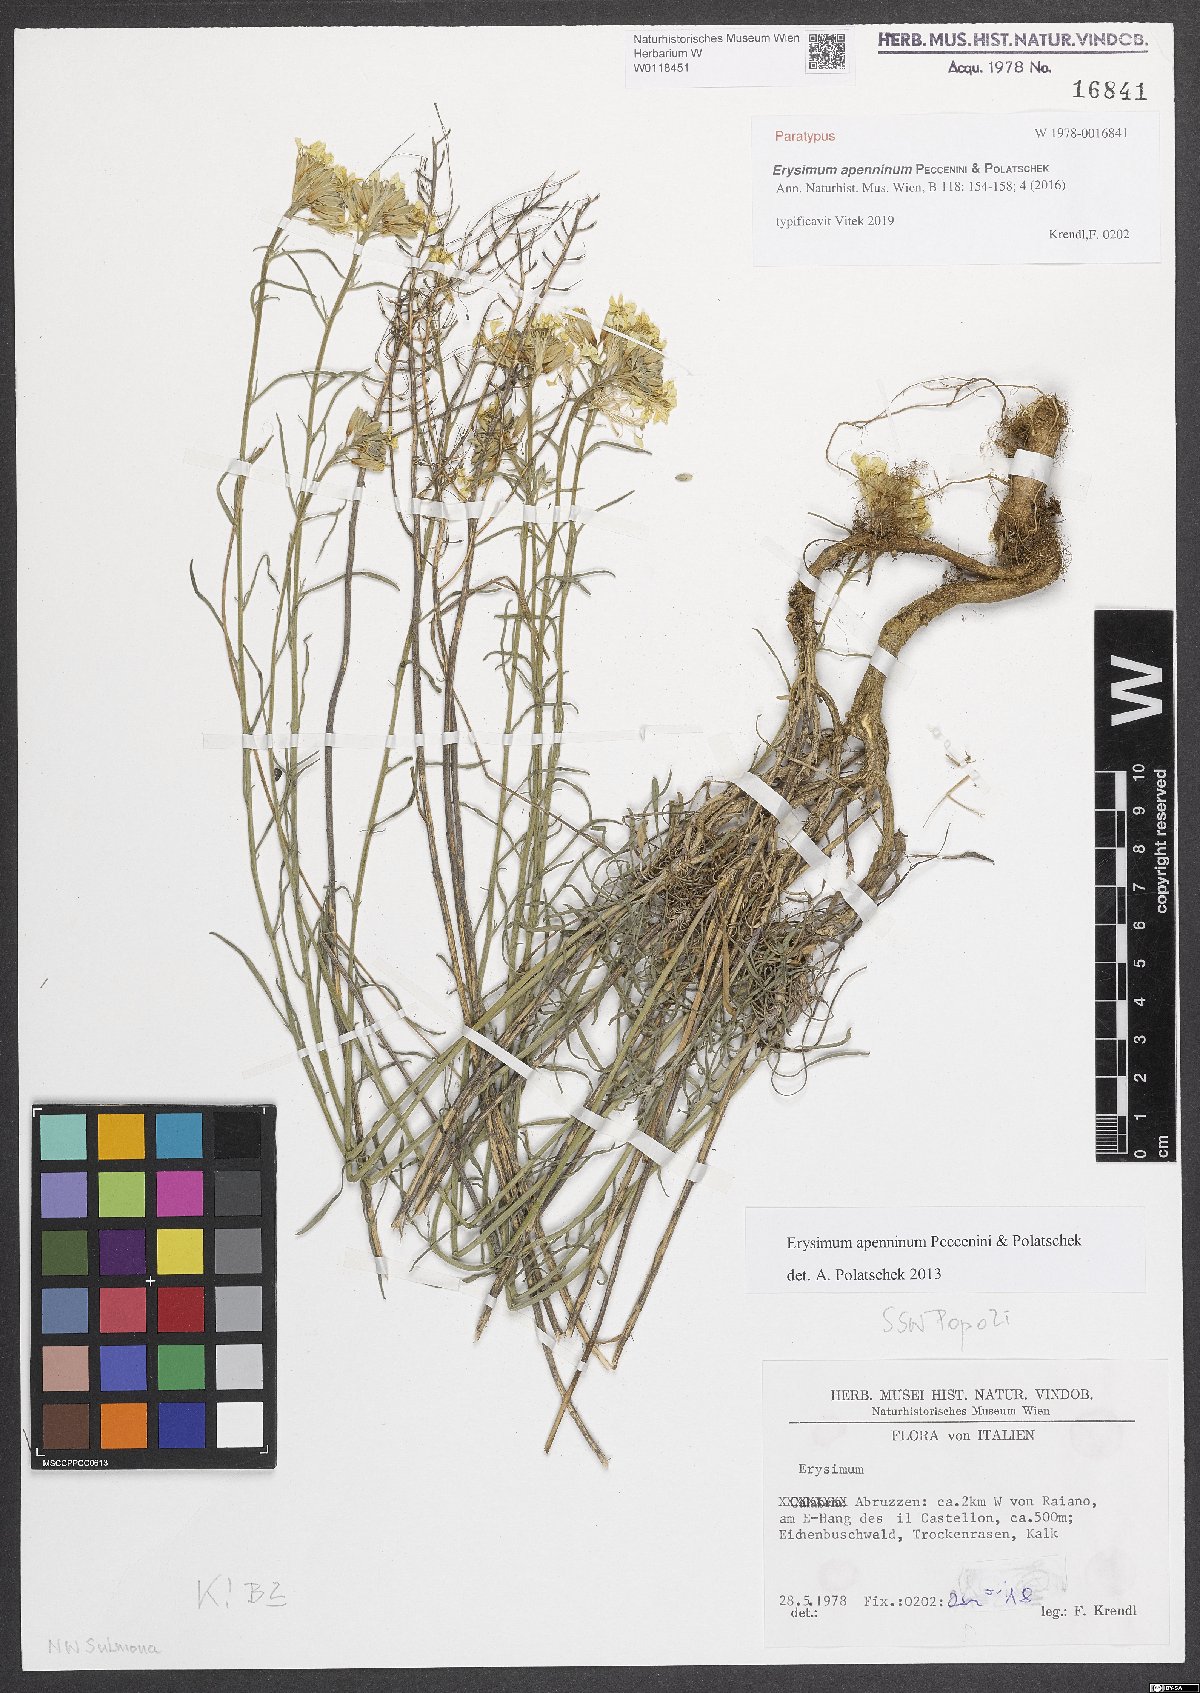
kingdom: Plantae
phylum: Tracheophyta
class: Magnoliopsida
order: Brassicales
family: Brassicaceae
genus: Erysimum
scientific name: Erysimum apenninum
